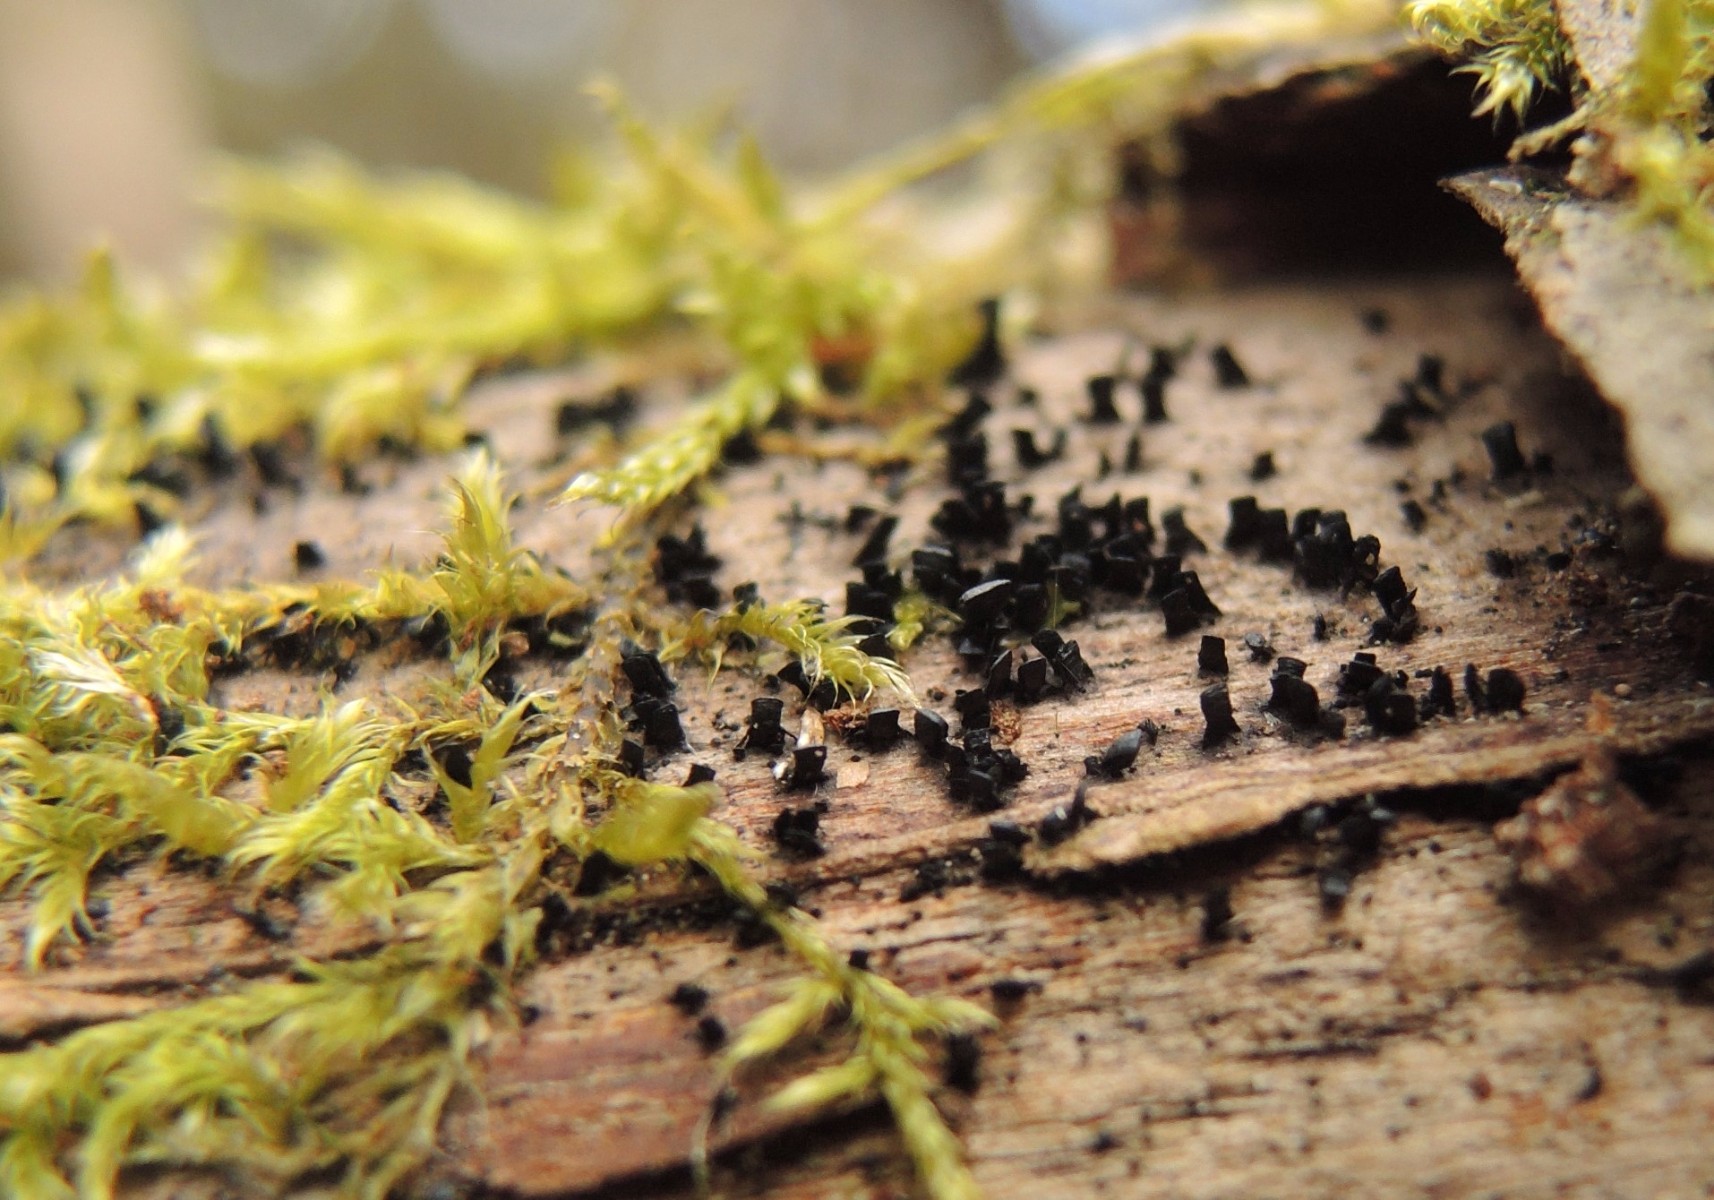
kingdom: Fungi
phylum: Ascomycota
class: Eurotiomycetes
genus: Glyphium
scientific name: Glyphium elatum
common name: kuløkse
